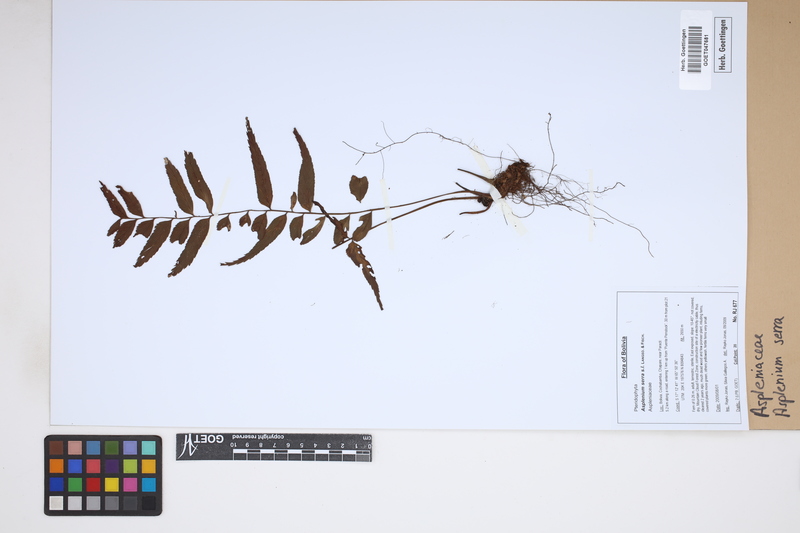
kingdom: Plantae
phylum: Tracheophyta
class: Polypodiopsida
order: Polypodiales
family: Aspleniaceae
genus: Asplenium
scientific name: Asplenium serra
